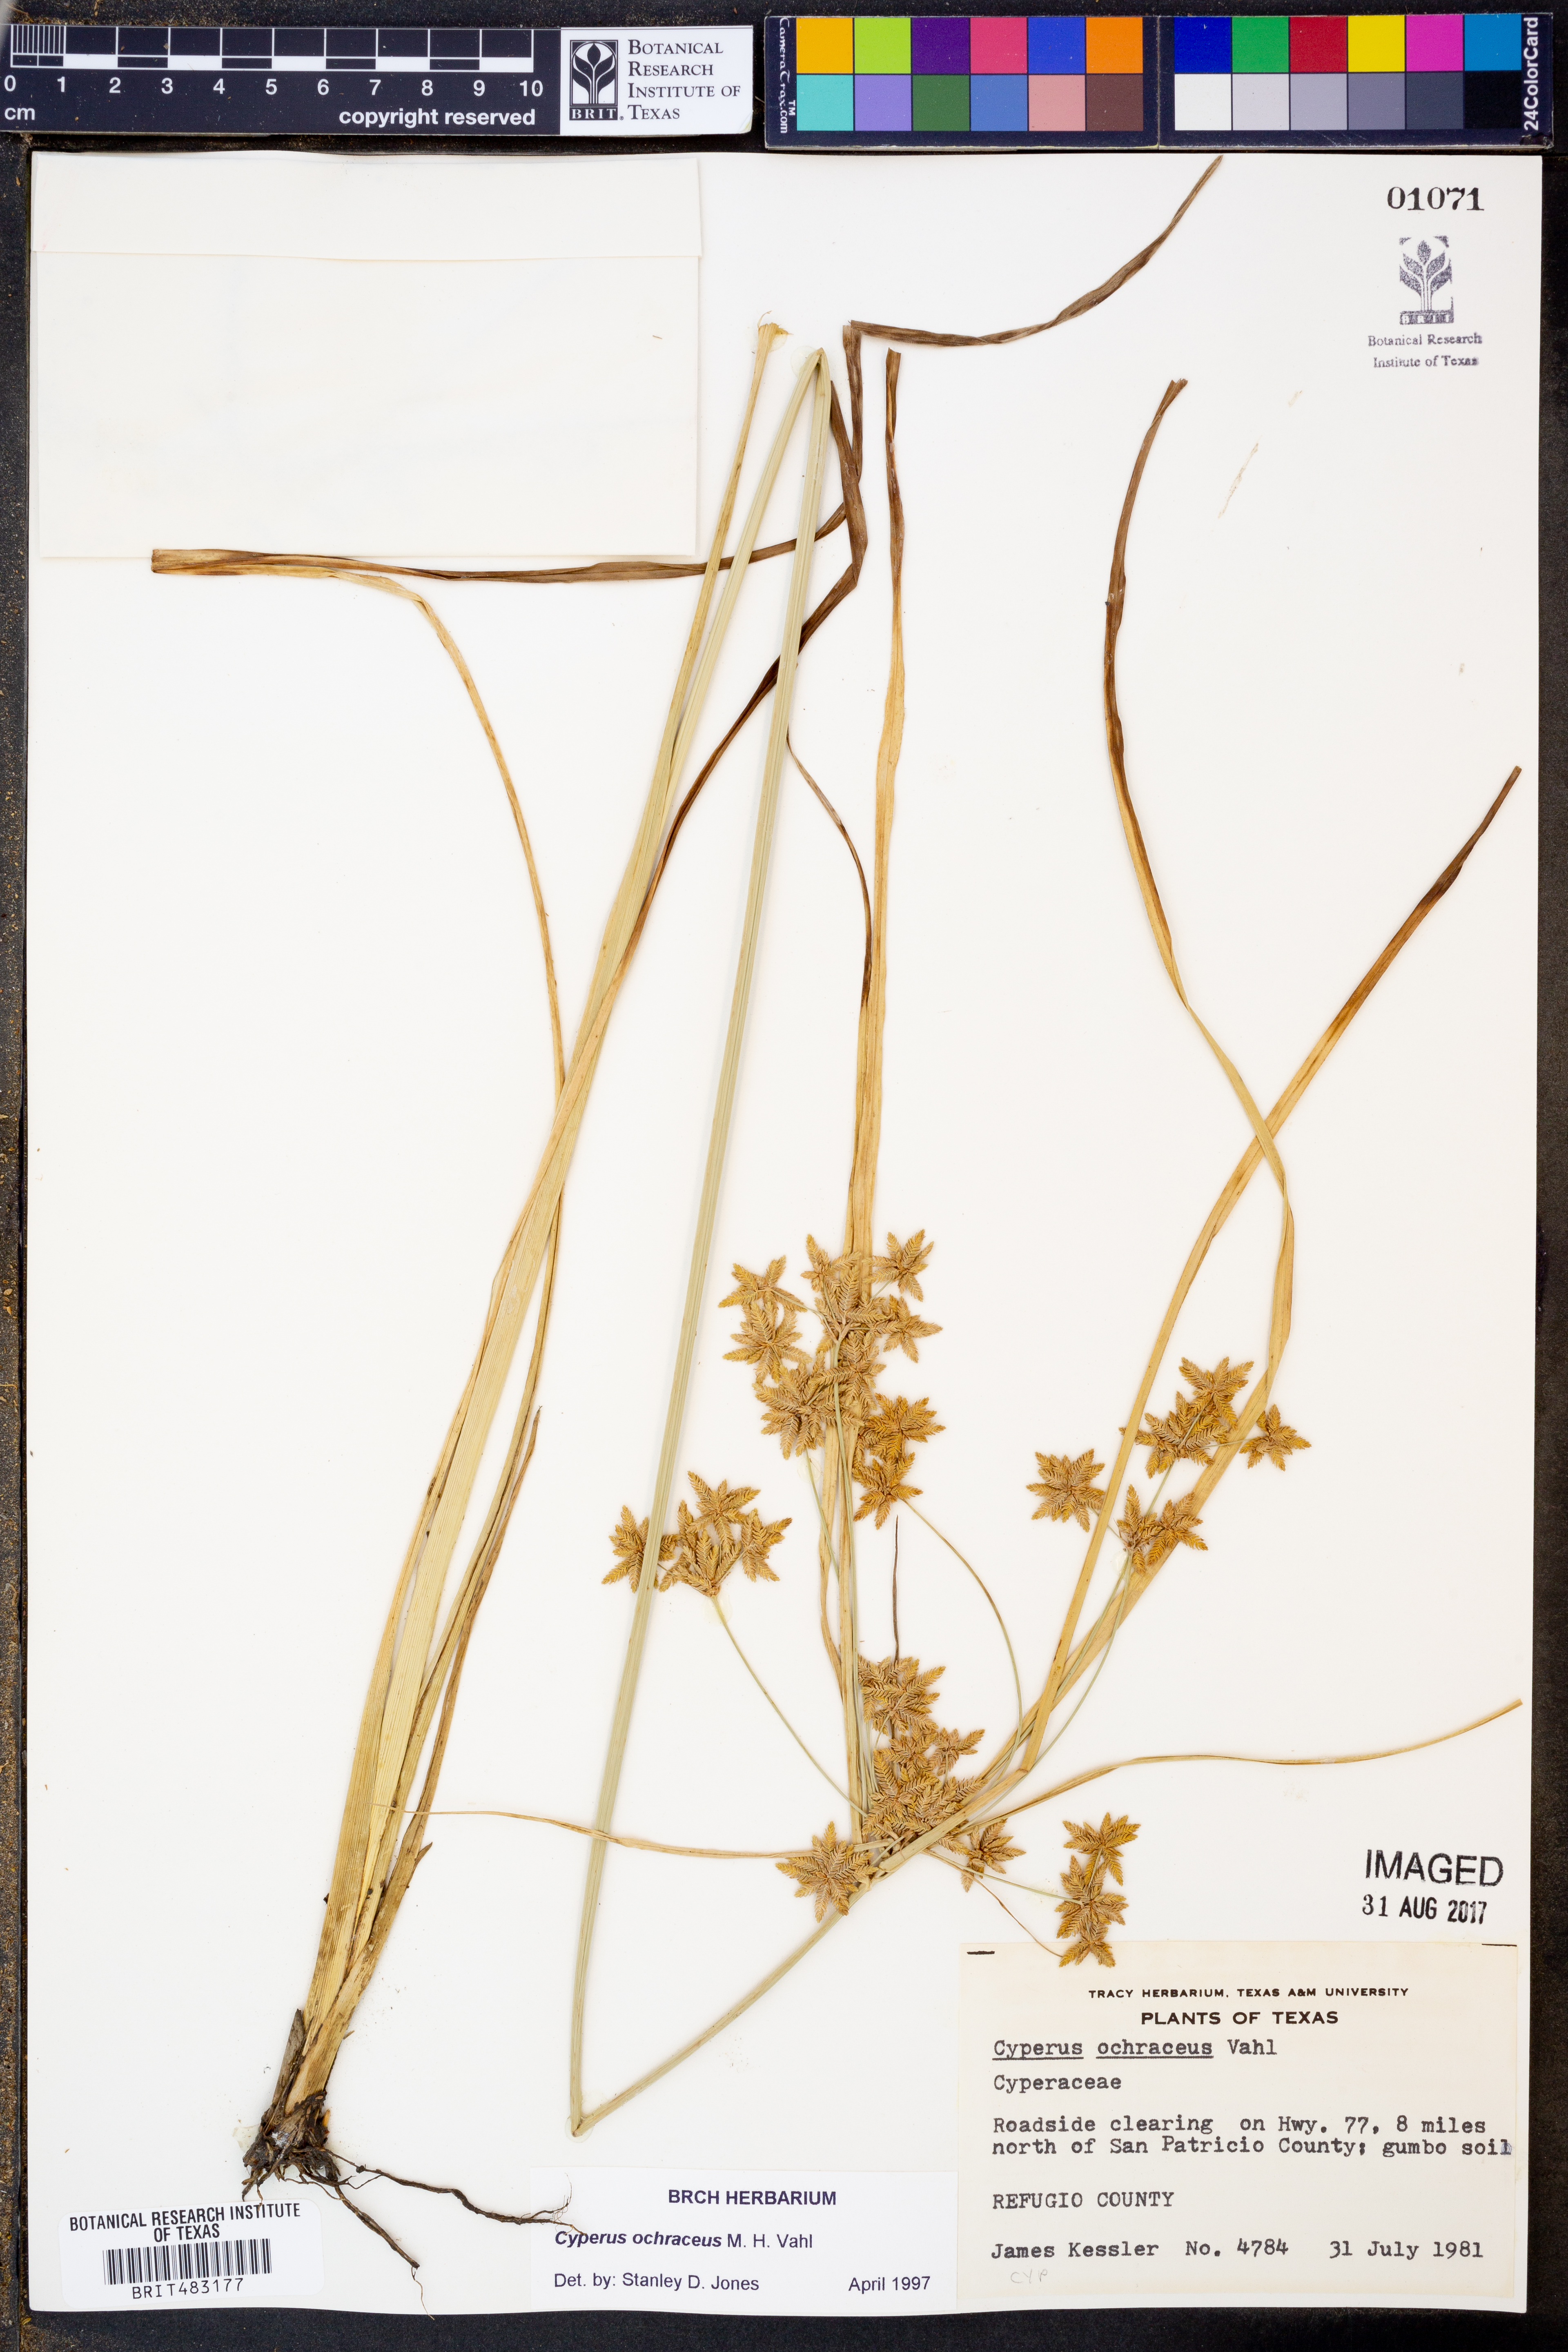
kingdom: Plantae
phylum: Tracheophyta
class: Liliopsida
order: Poales
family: Cyperaceae
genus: Cyperus
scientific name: Cyperus ochraceus
